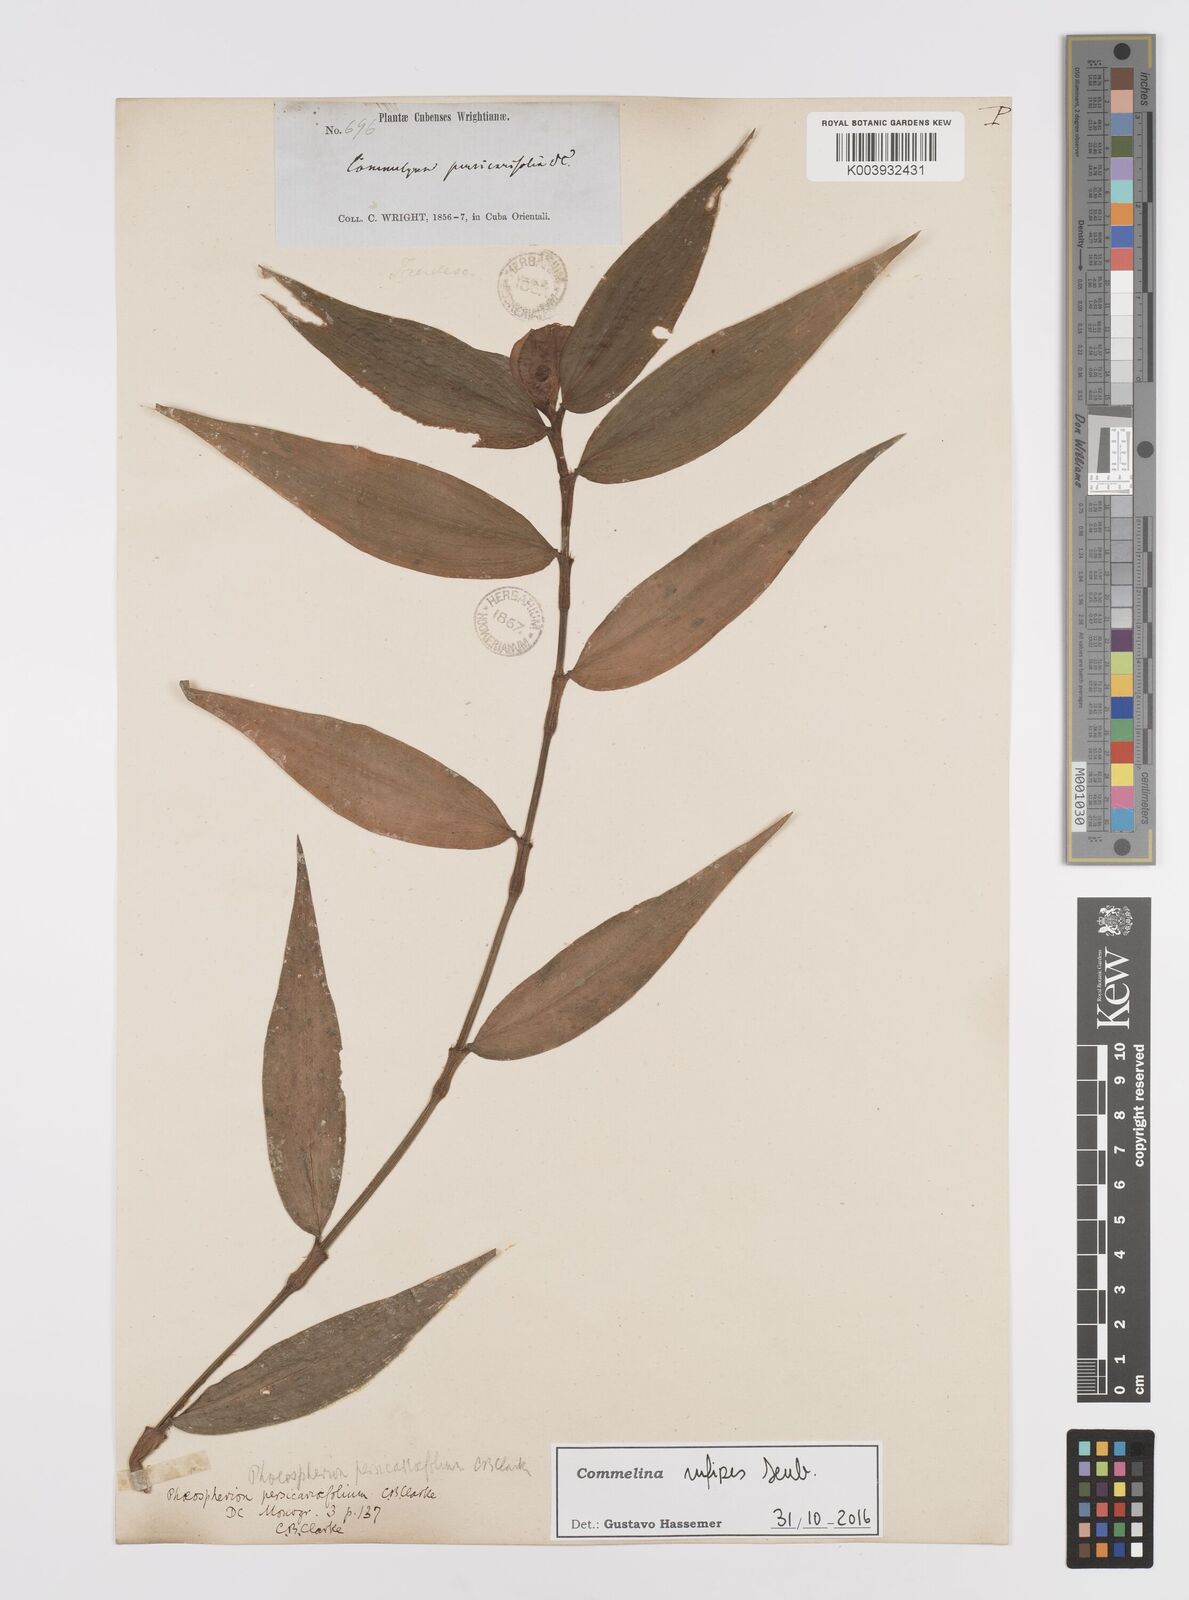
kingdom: Plantae
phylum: Tracheophyta
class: Liliopsida
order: Commelinales
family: Commelinaceae
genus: Commelina
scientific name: Commelina rufipes
